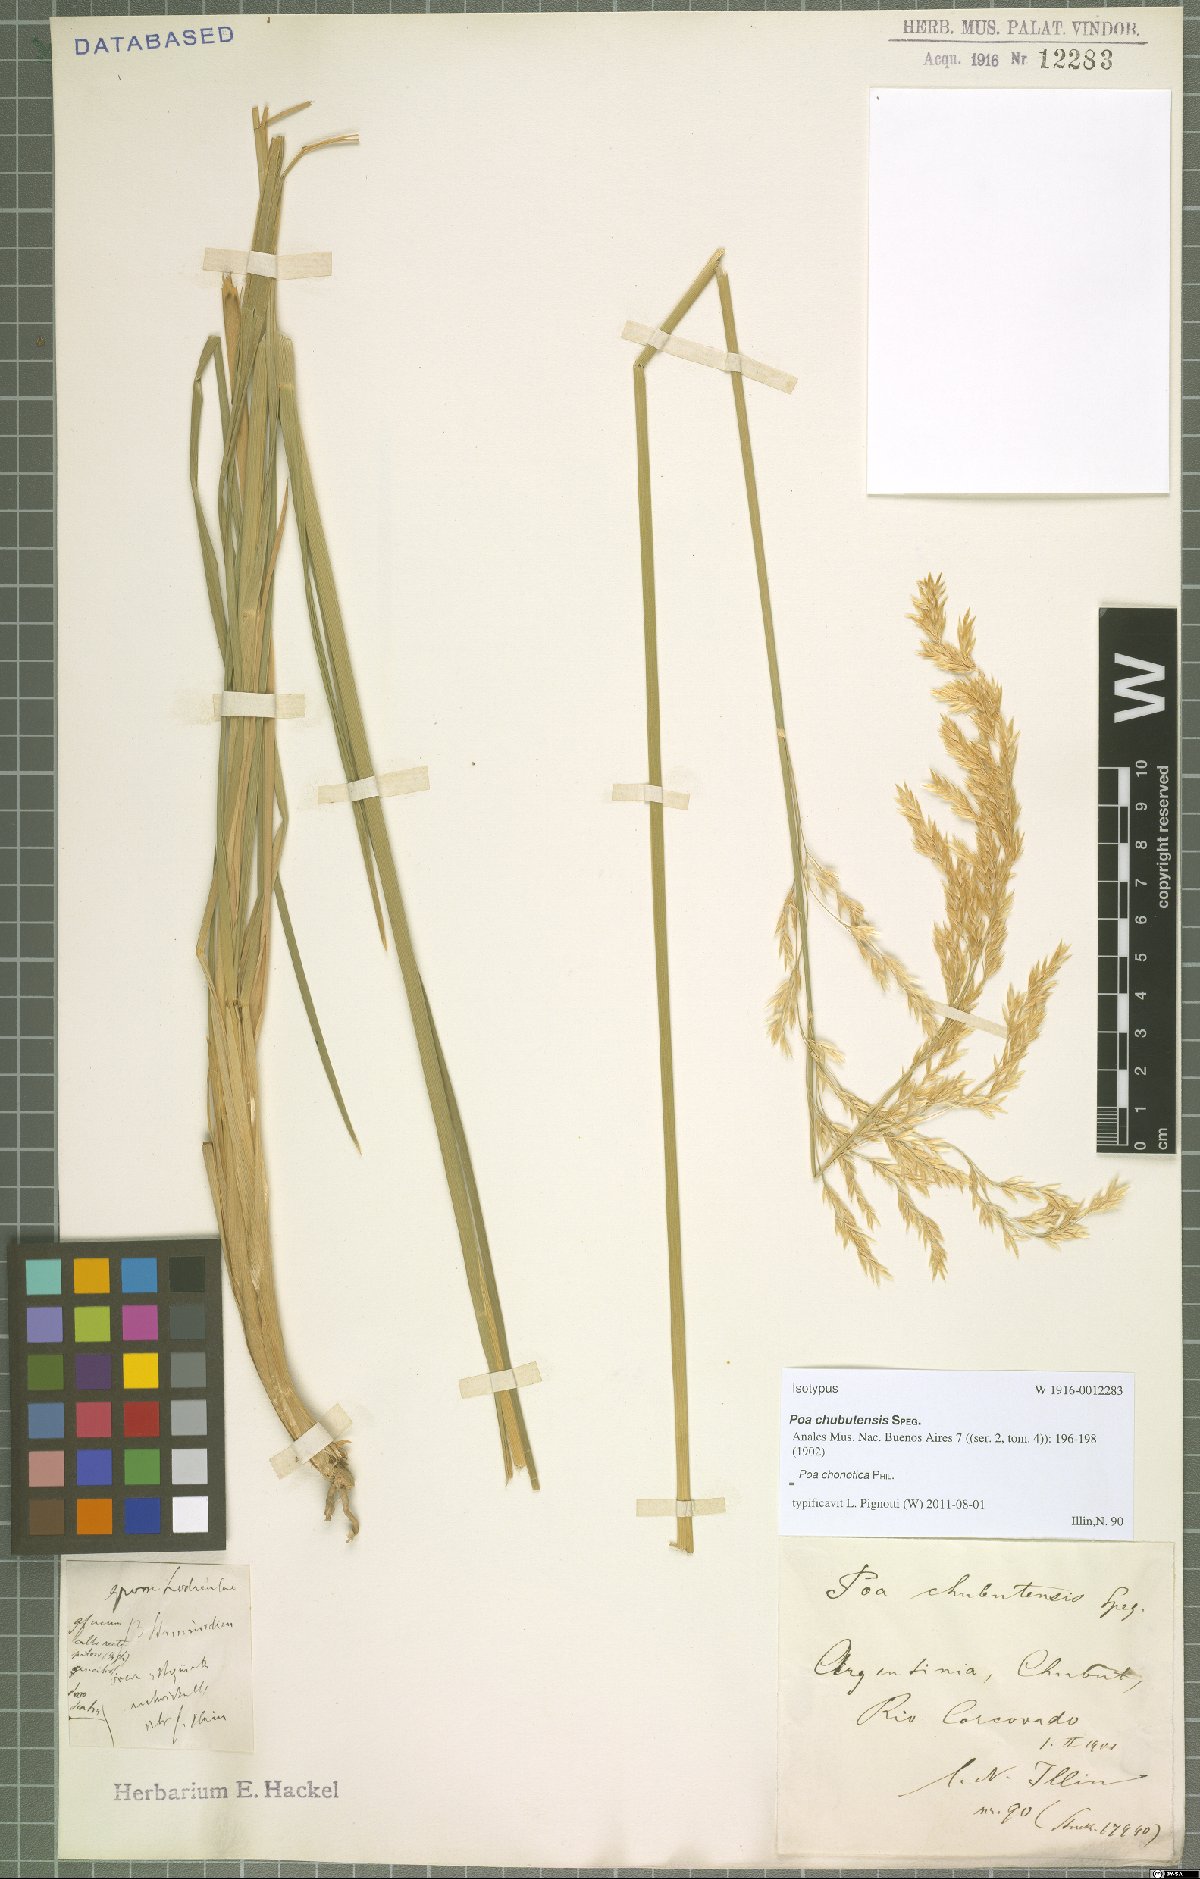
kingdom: Plantae
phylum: Tracheophyta
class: Liliopsida
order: Poales
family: Poaceae
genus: Nicoraepoa
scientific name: Nicoraepoa chonotica
